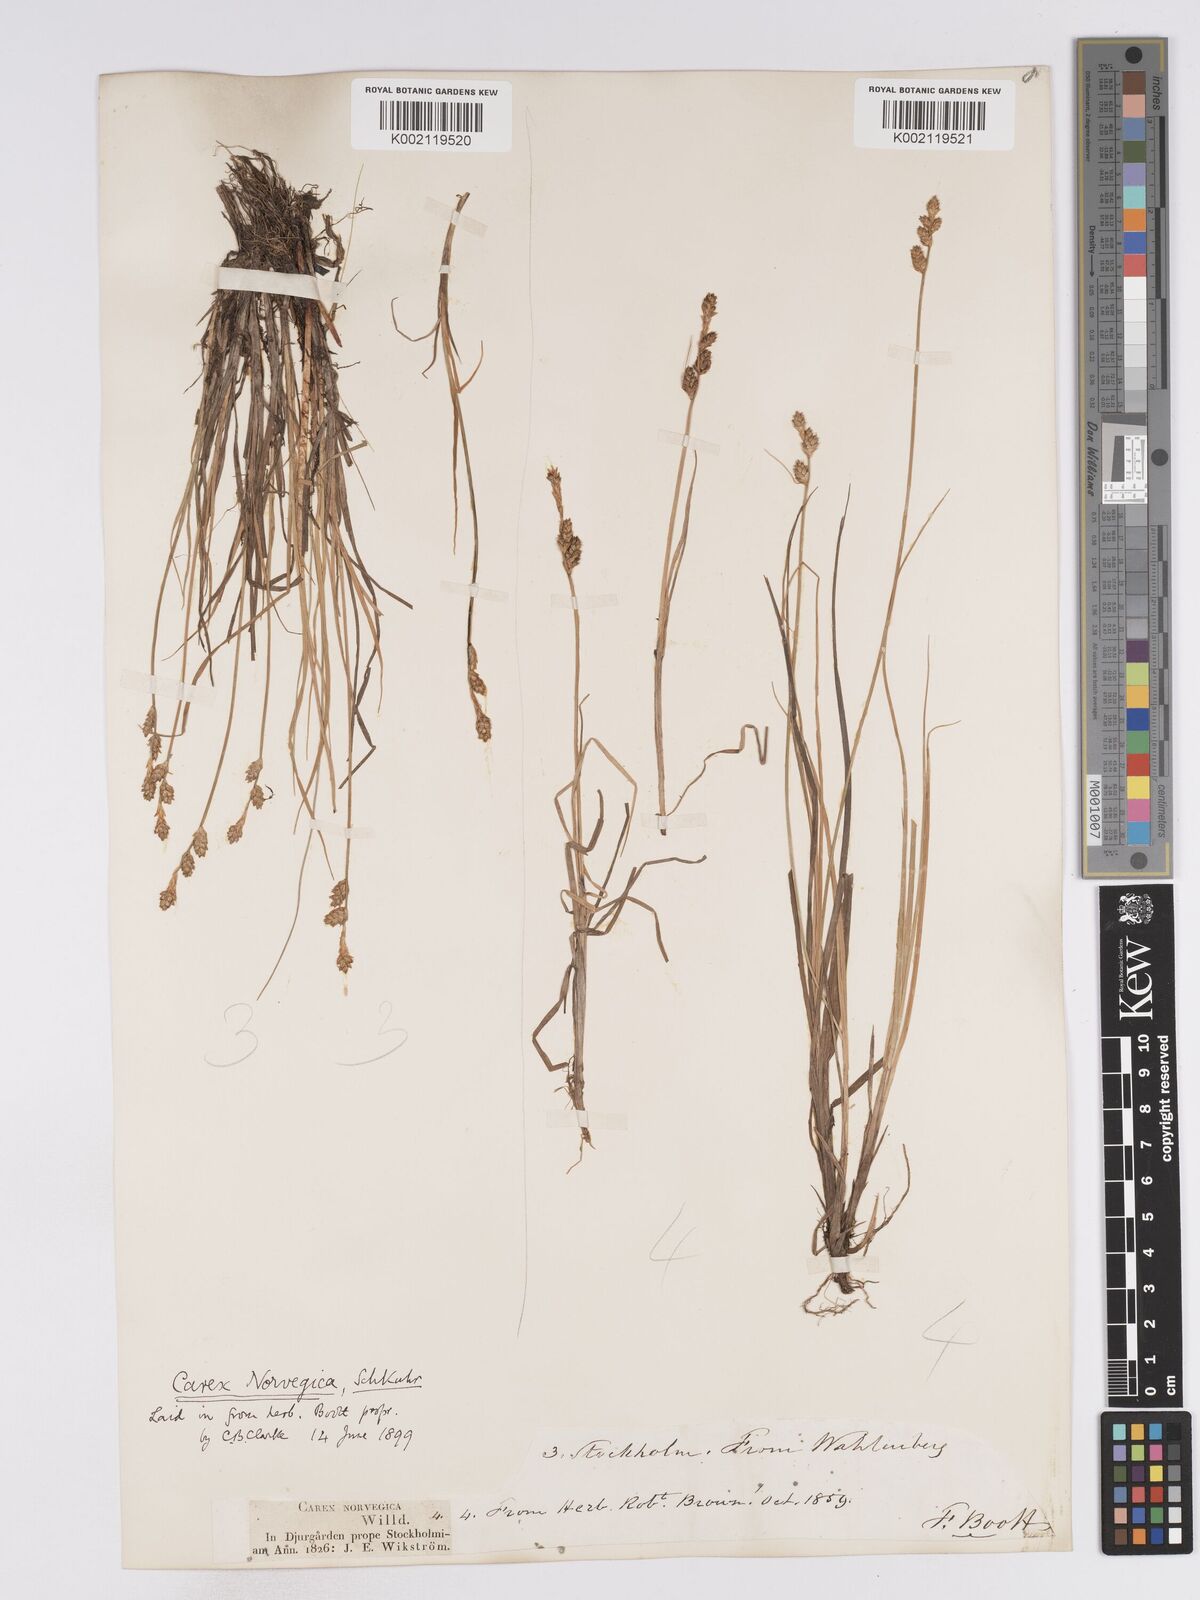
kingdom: Plantae
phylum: Tracheophyta
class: Liliopsida
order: Poales
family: Cyperaceae
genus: Carex
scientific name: Carex mackenziei
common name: Mackenzie's sedge
